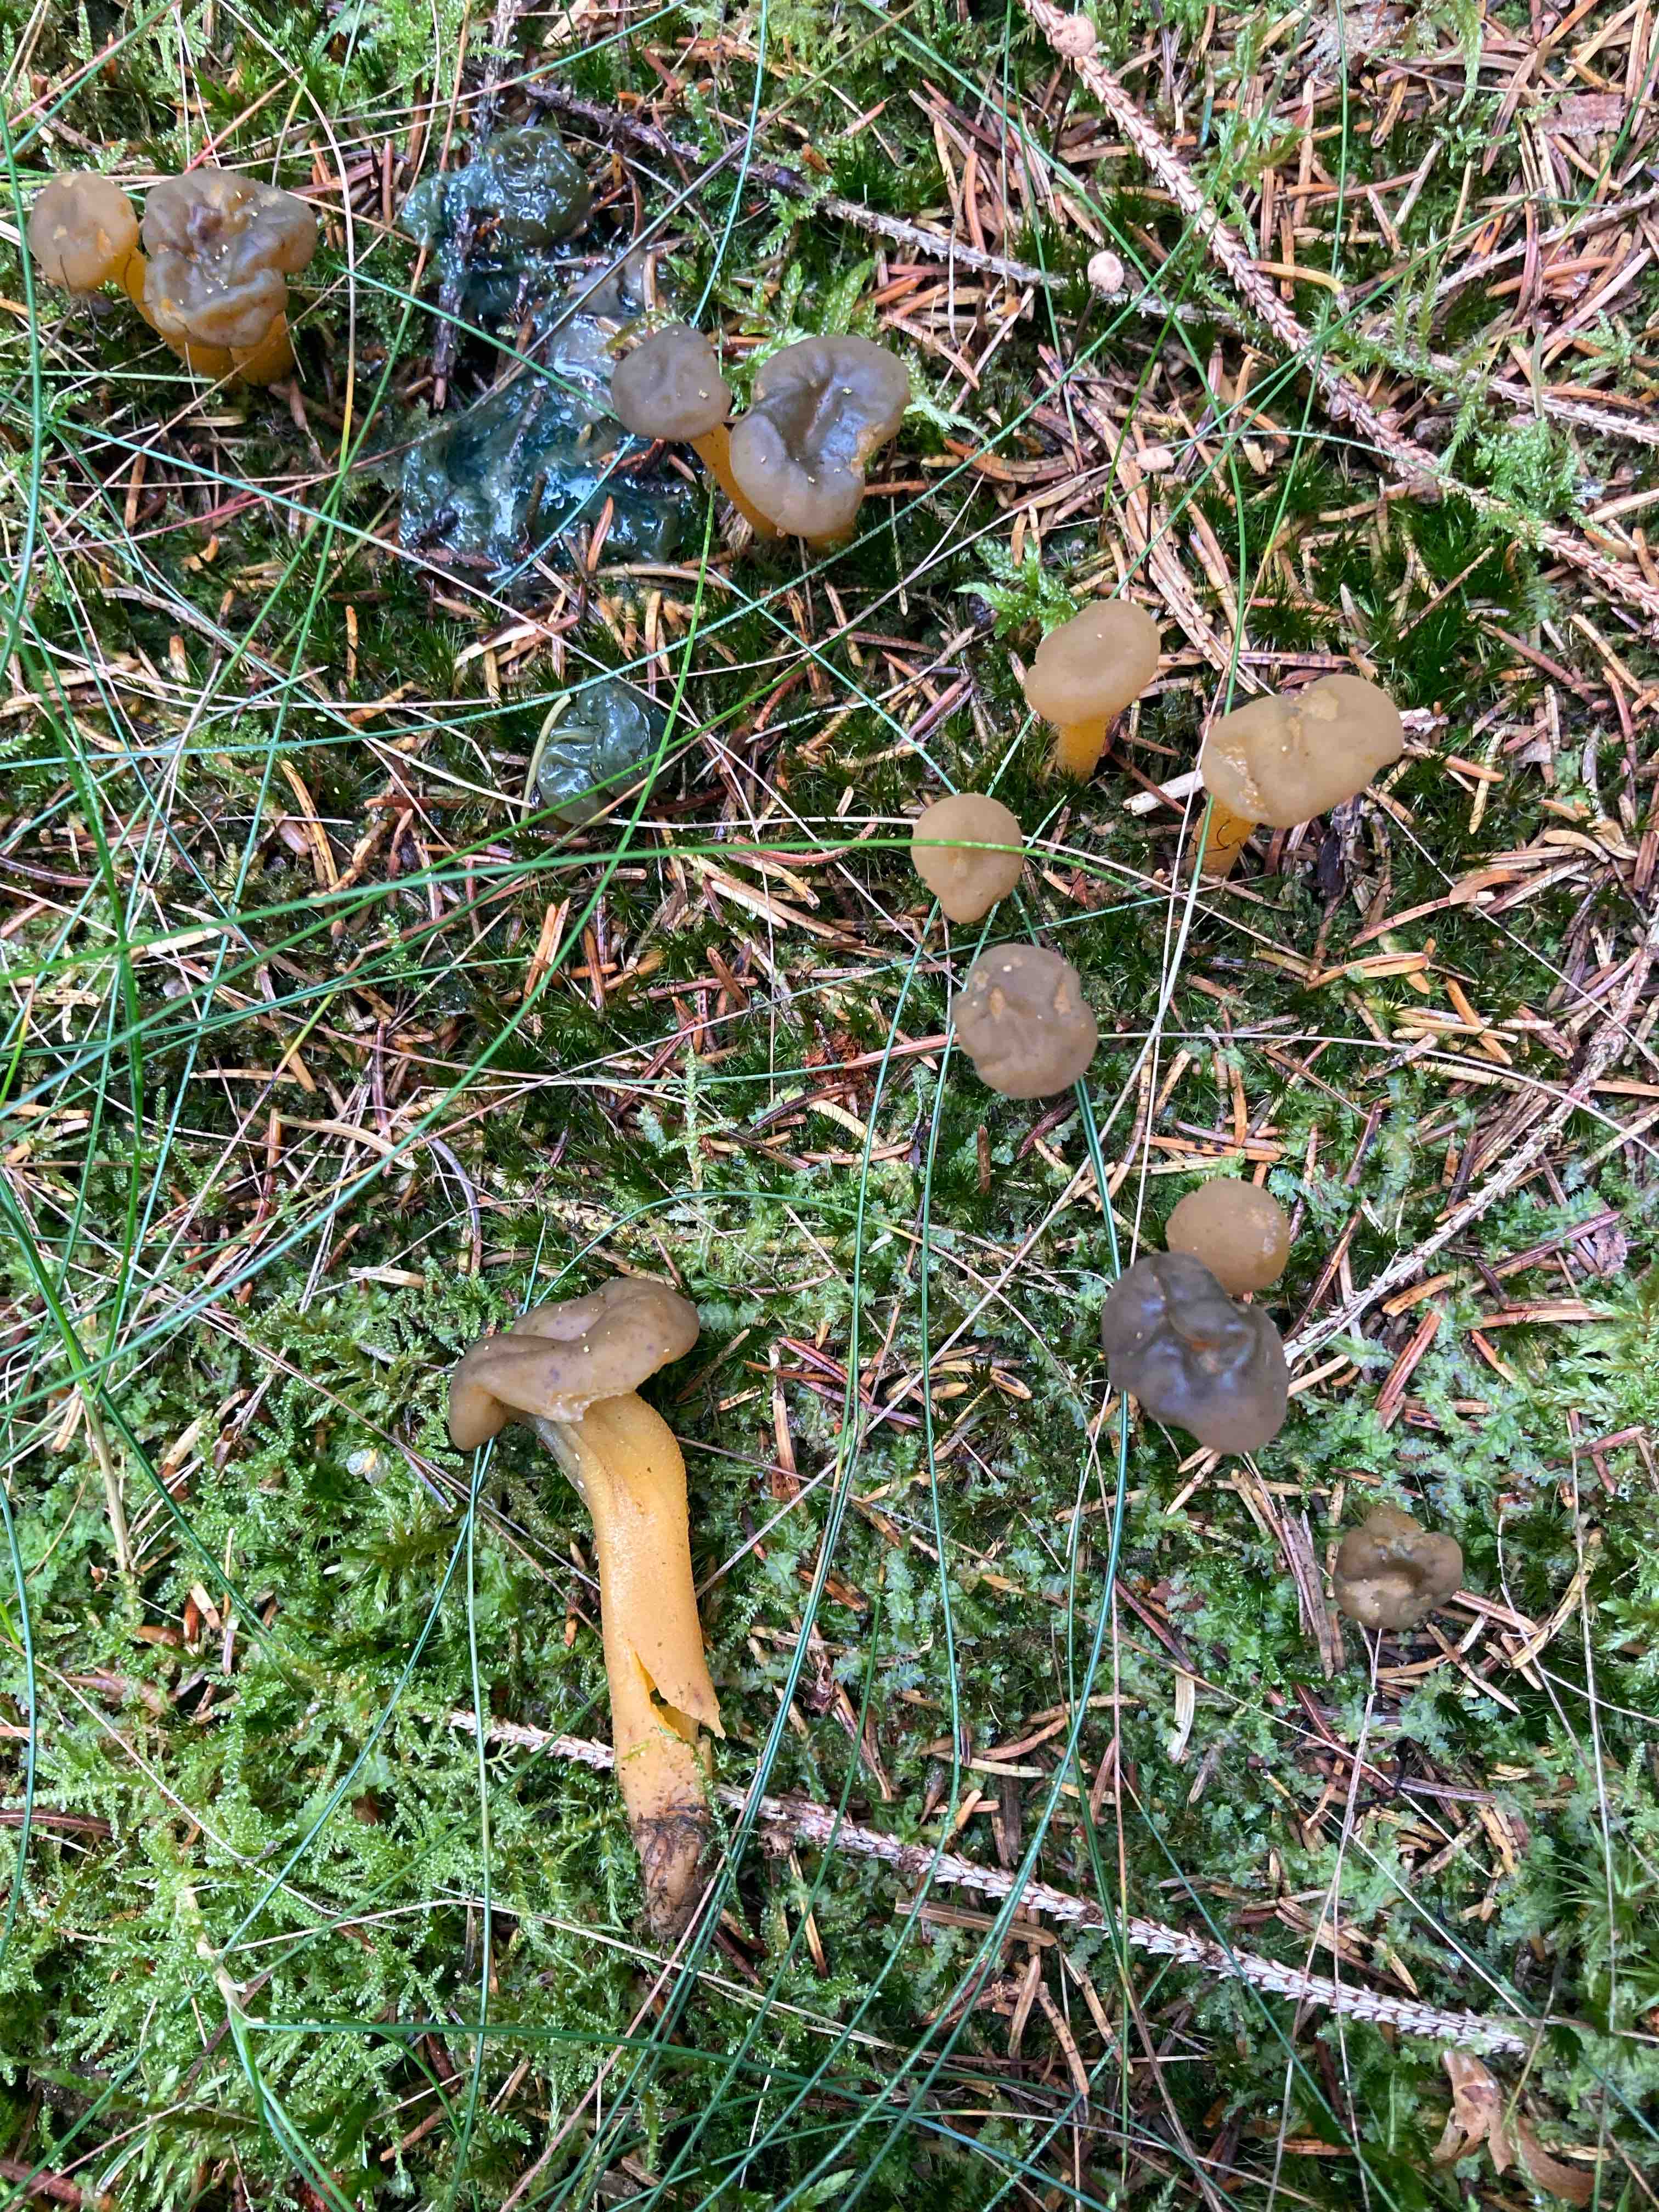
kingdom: Fungi
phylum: Ascomycota
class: Leotiomycetes
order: Leotiales
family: Leotiaceae
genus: Leotia
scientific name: Leotia lubrica
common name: ravsvamp
